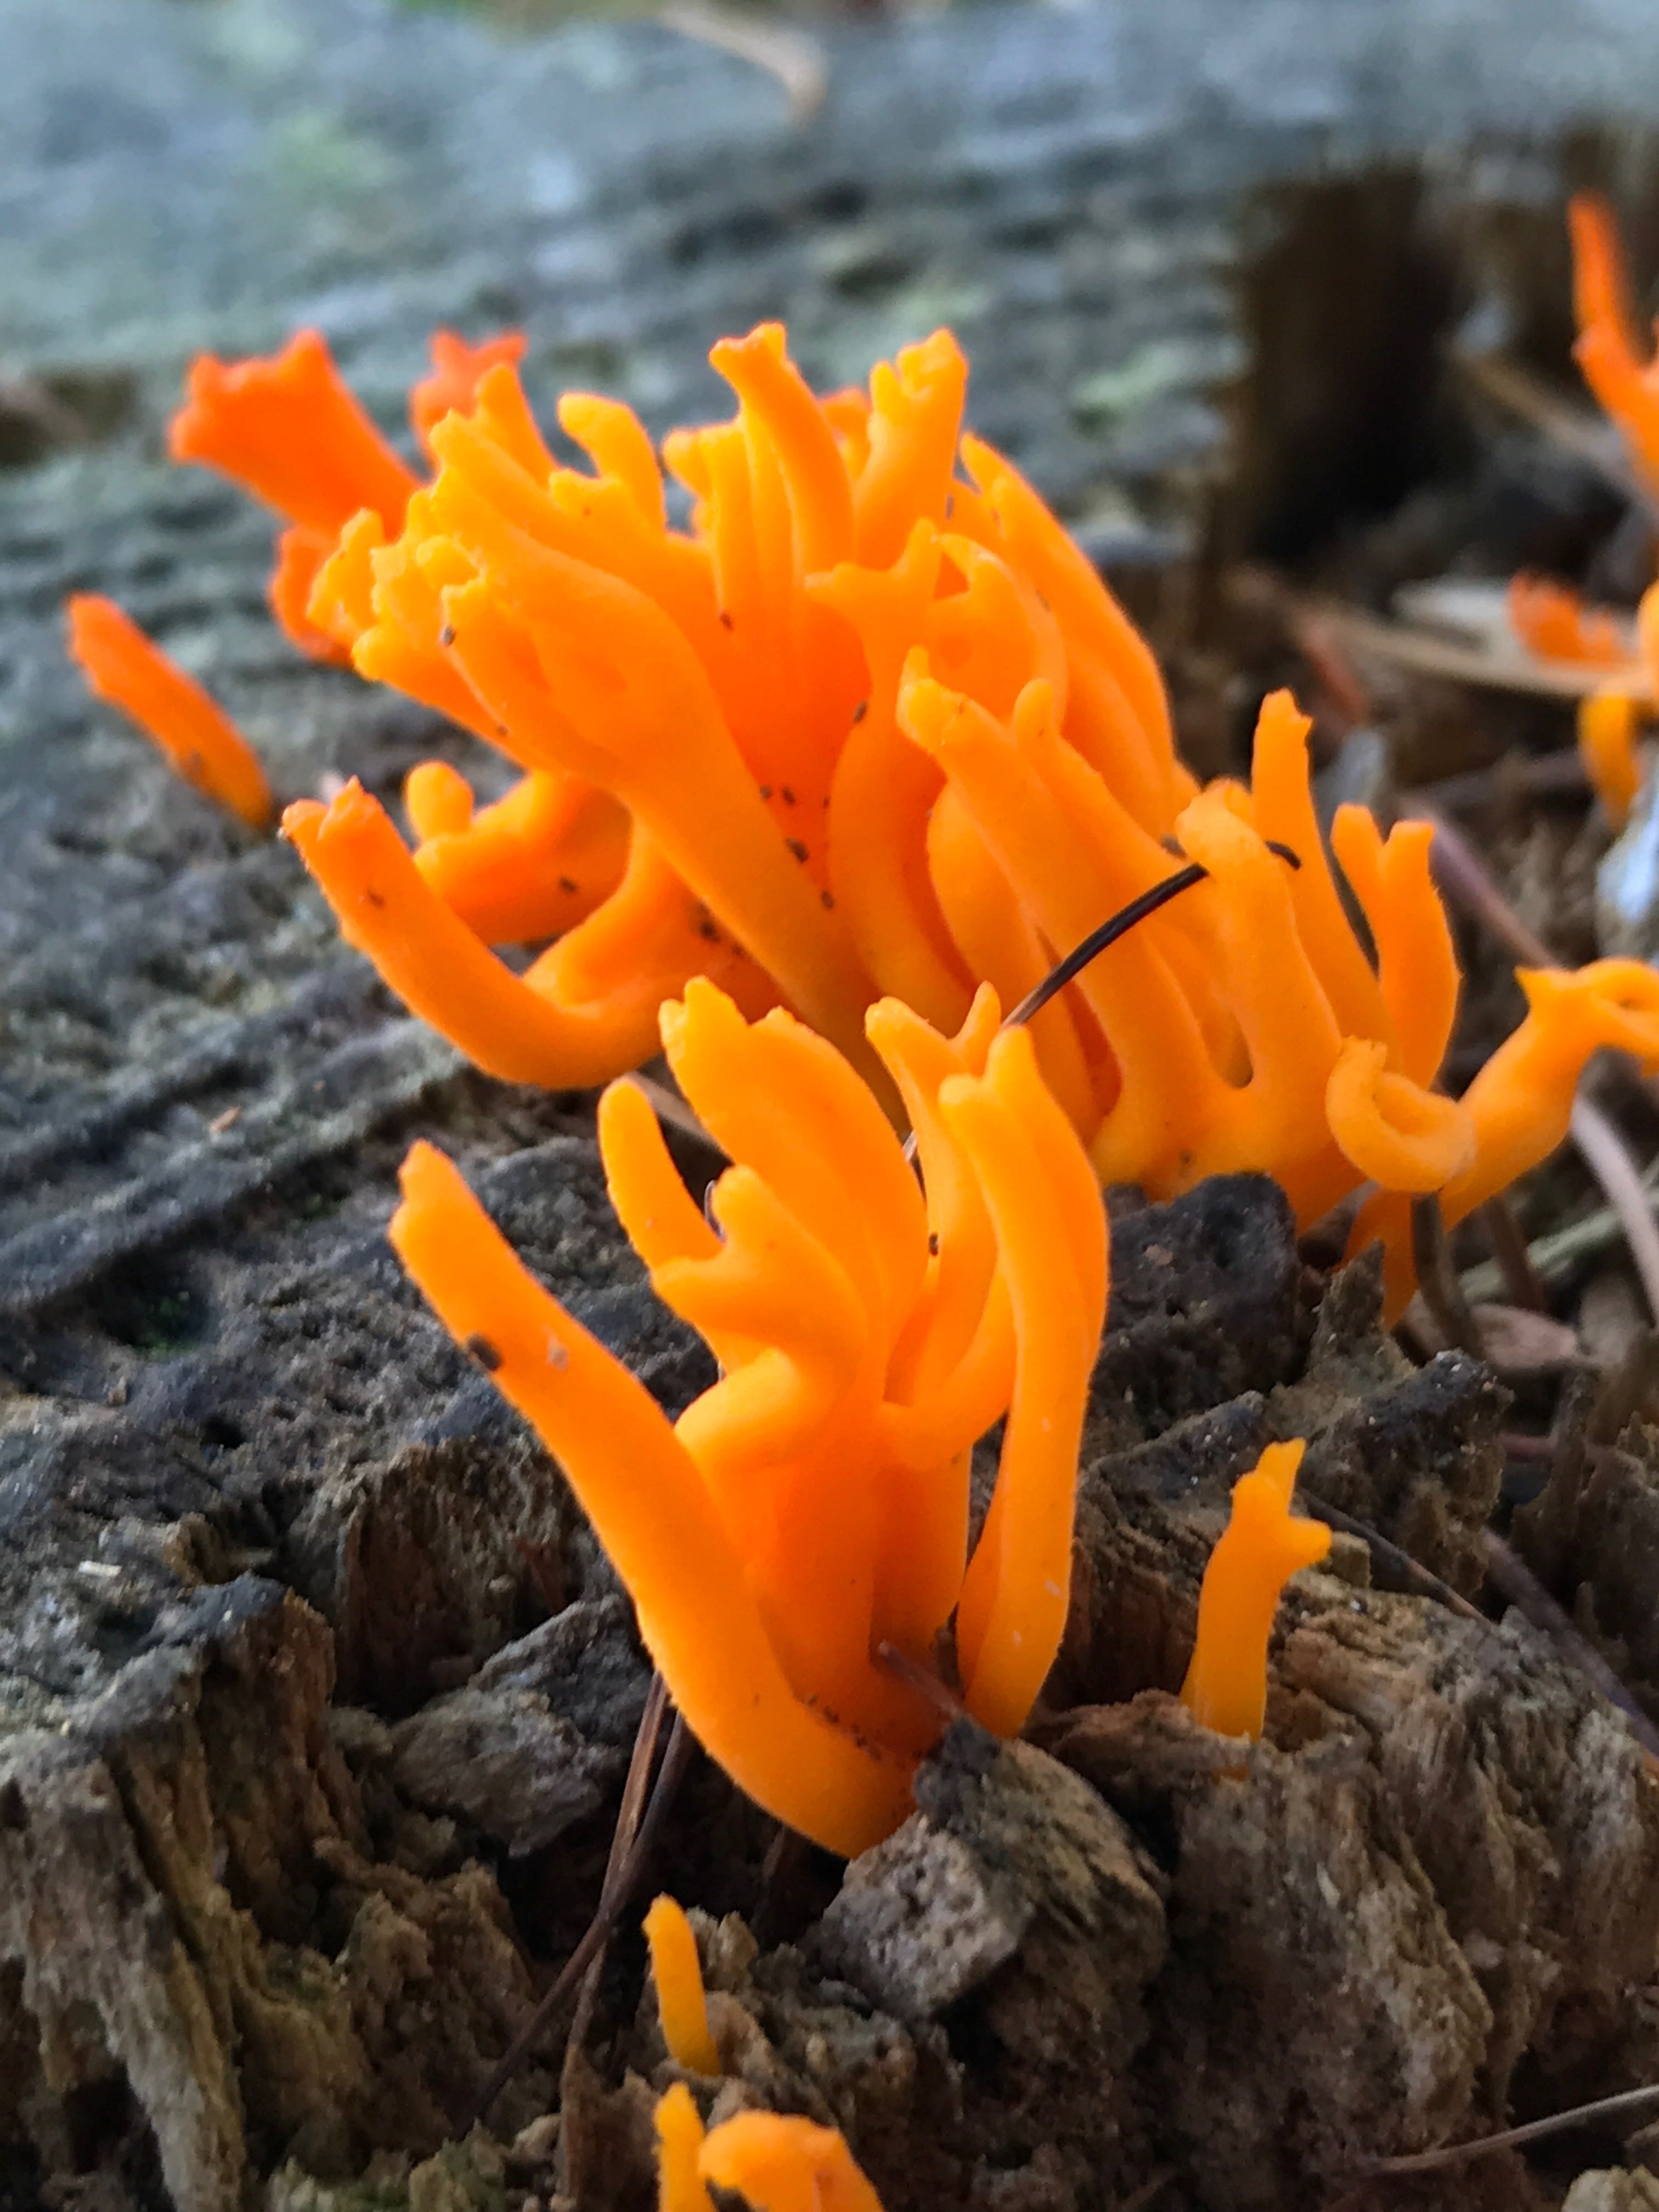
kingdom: Fungi
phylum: Basidiomycota
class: Dacrymycetes
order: Dacrymycetales
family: Dacrymycetaceae
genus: Calocera
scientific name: Calocera viscosa
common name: almindelig guldgaffel
